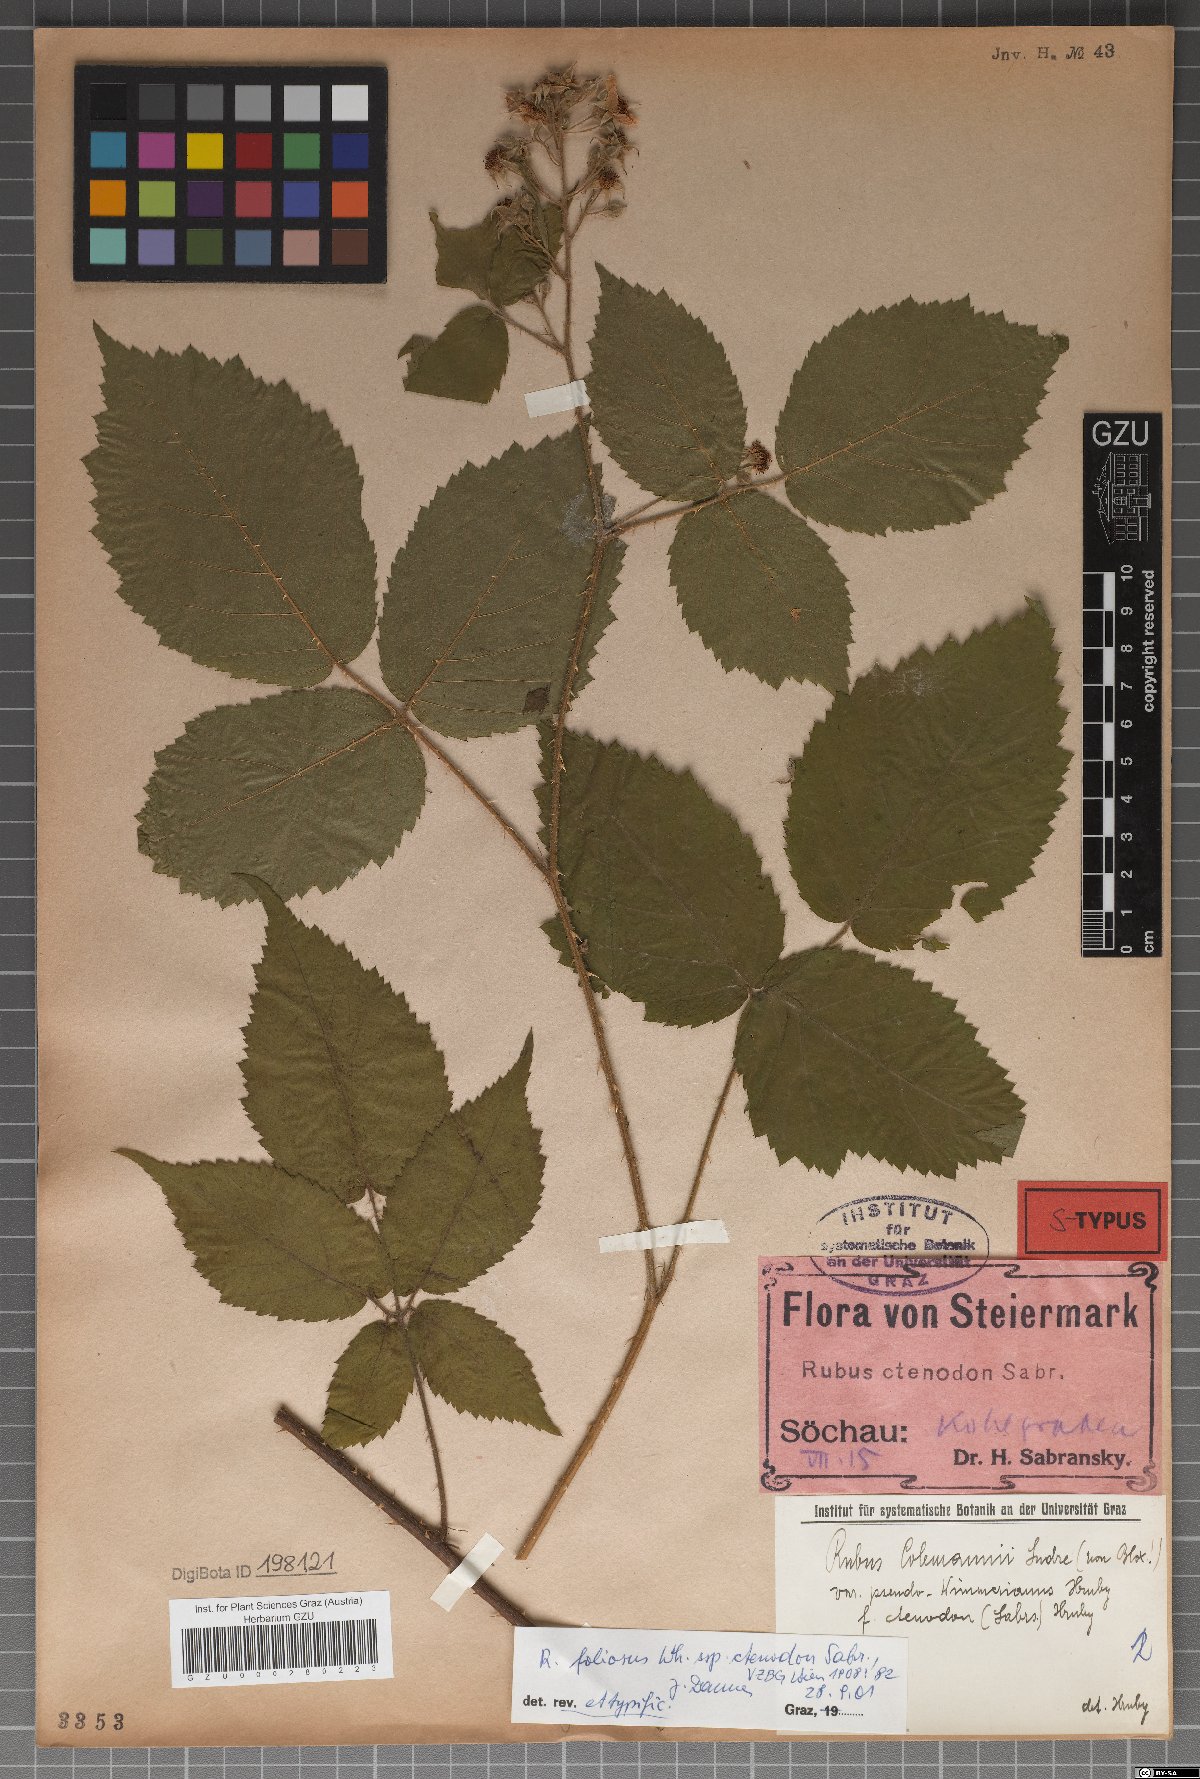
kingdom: Plantae
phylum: Tracheophyta
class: Magnoliopsida
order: Rosales
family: Rosaceae
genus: Rubus
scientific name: Rubus foliosus
